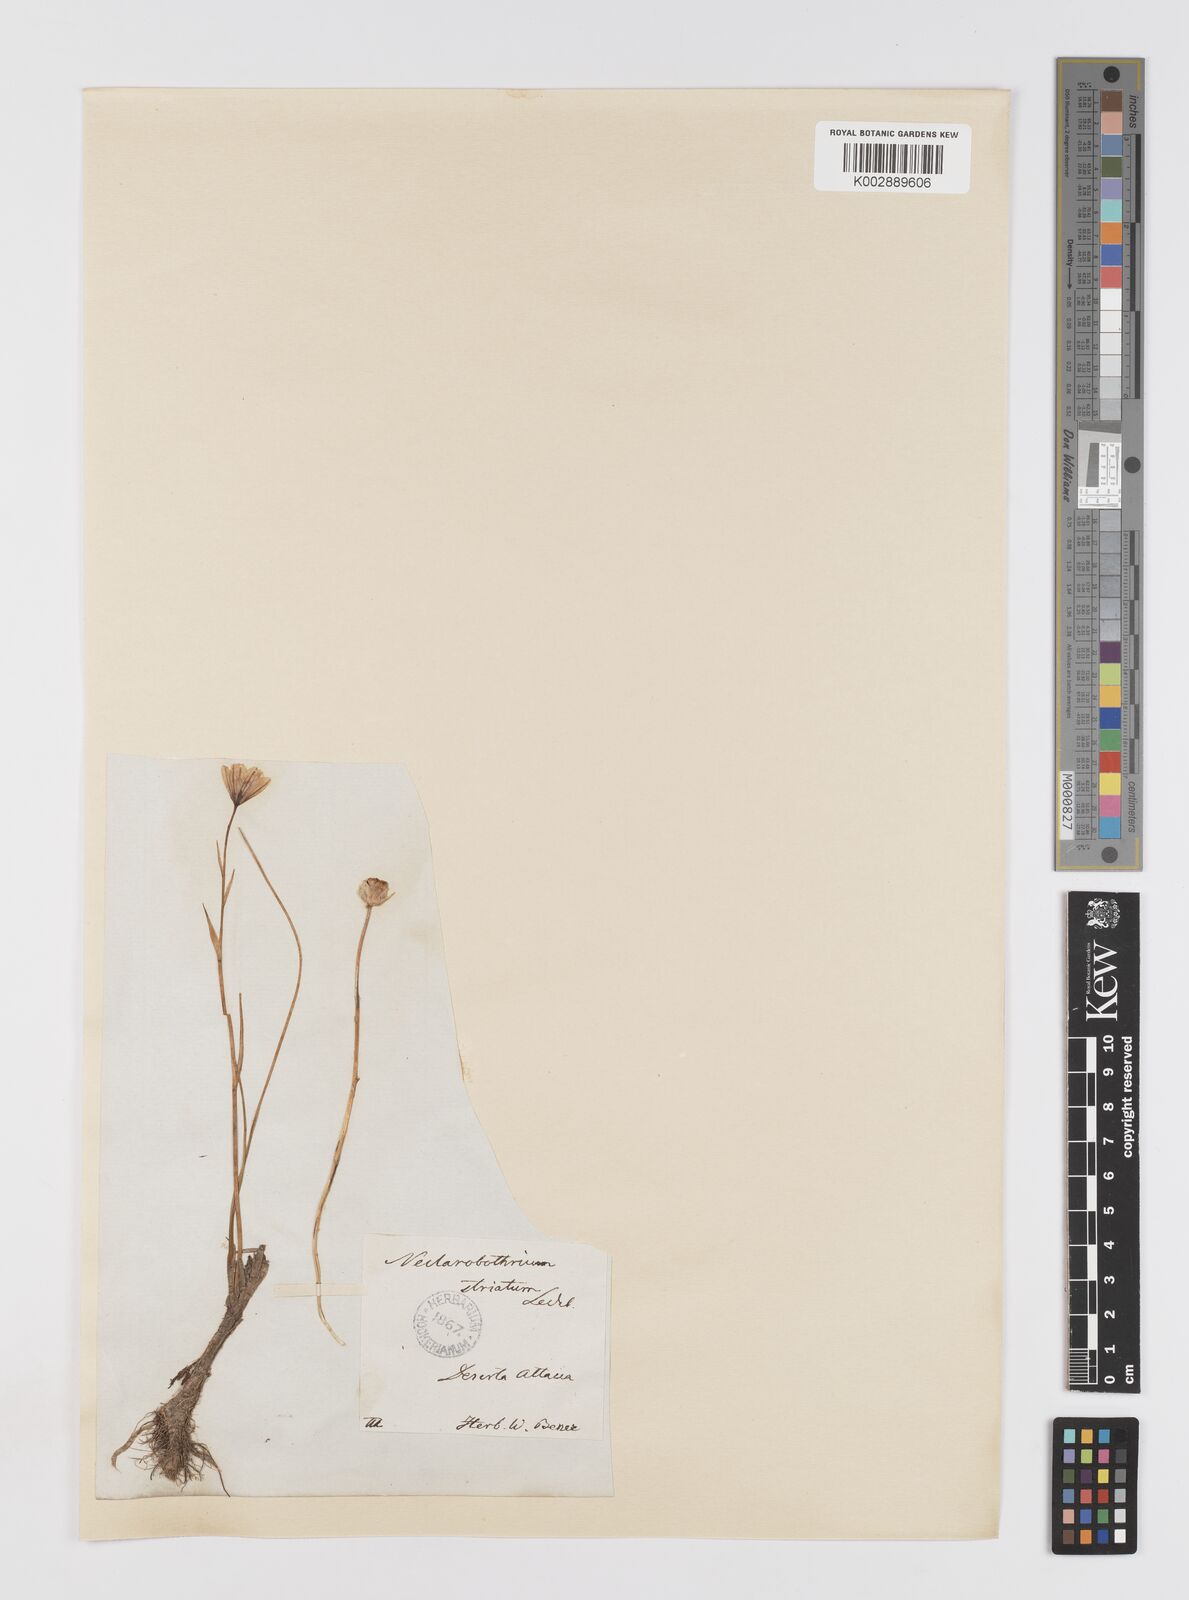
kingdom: Plantae
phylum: Tracheophyta
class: Liliopsida
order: Liliales
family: Liliaceae
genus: Gagea
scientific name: Gagea serotina
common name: Snowdon lily
